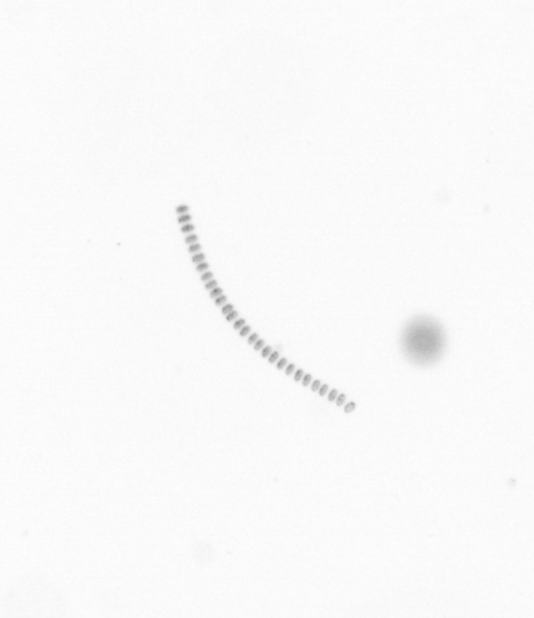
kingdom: Chromista
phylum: Ochrophyta
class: Bacillariophyceae
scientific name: Bacillariophyceae
